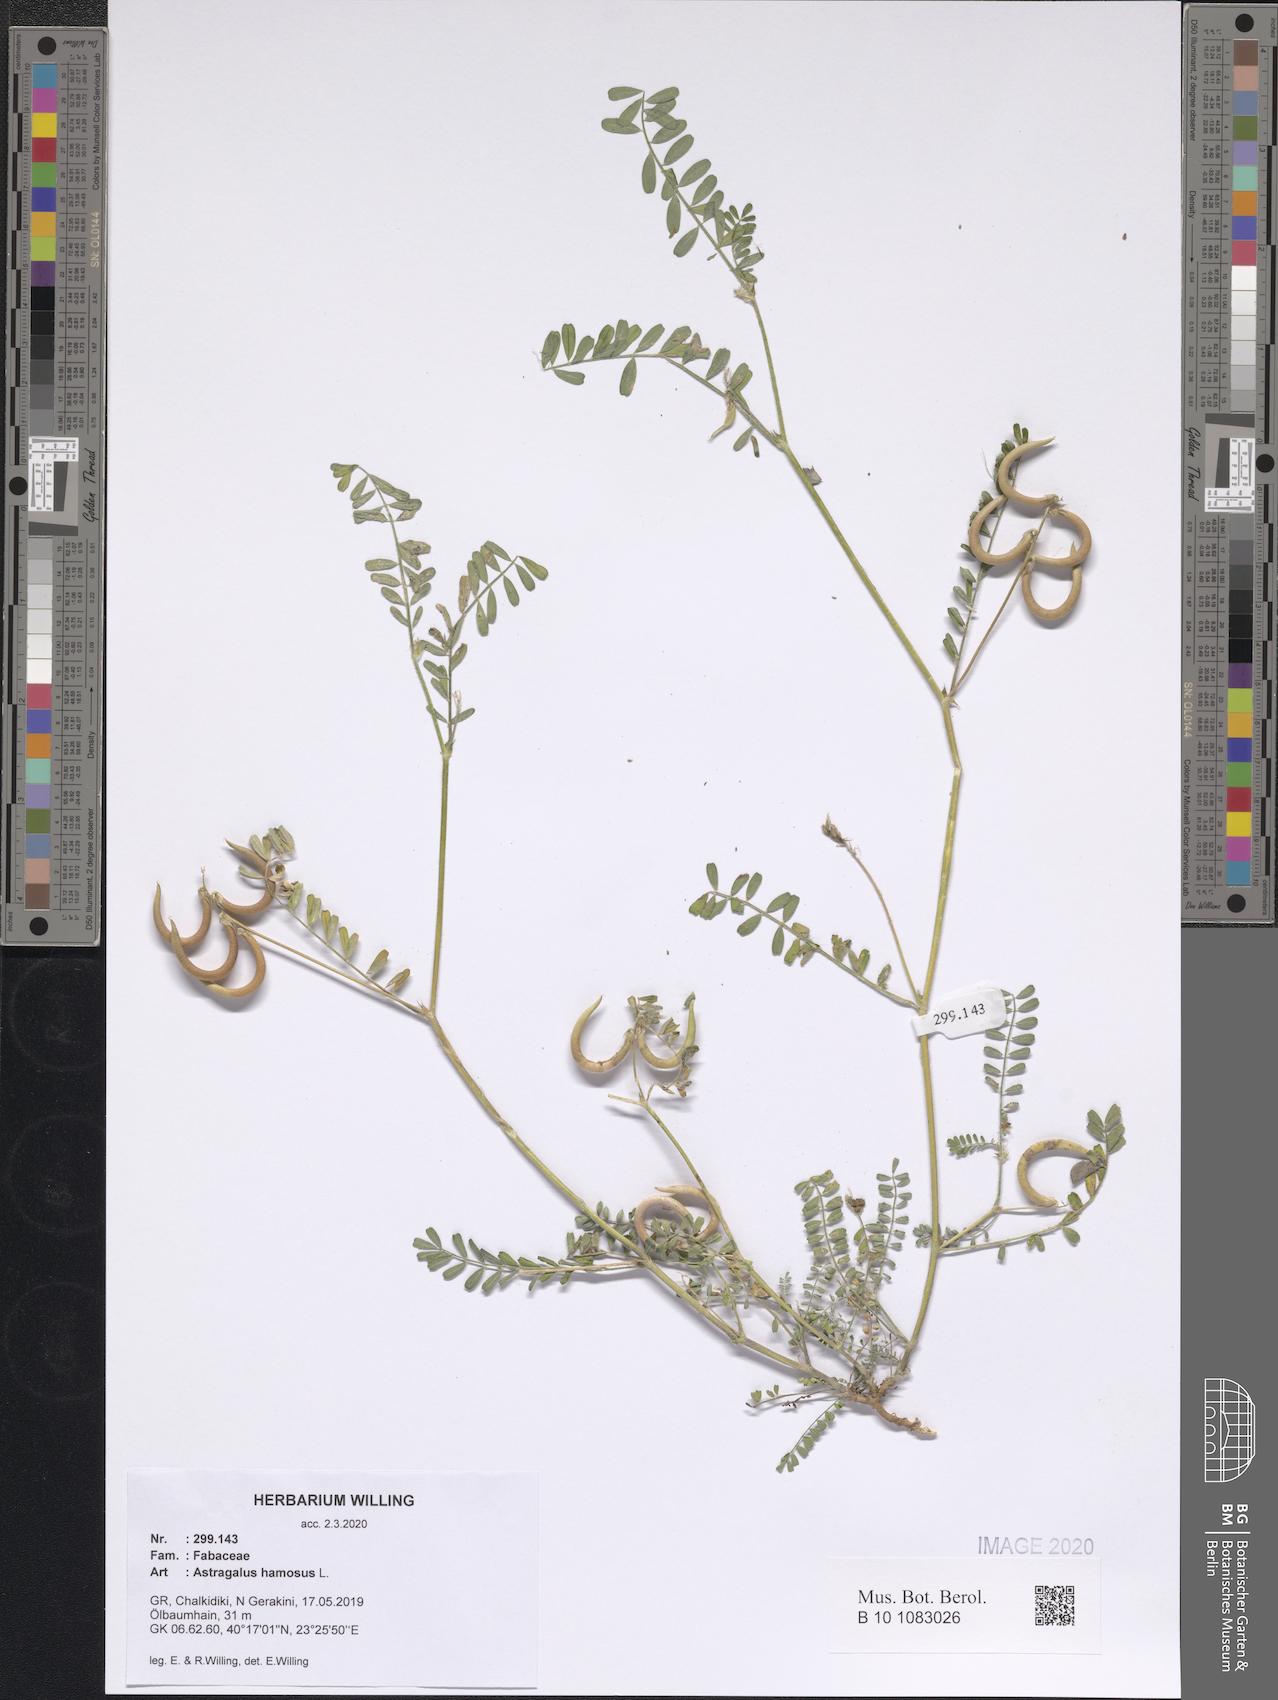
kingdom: Plantae
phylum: Tracheophyta
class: Magnoliopsida
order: Fabales
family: Fabaceae
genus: Astragalus
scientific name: Astragalus hamosus
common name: European milkvetch
